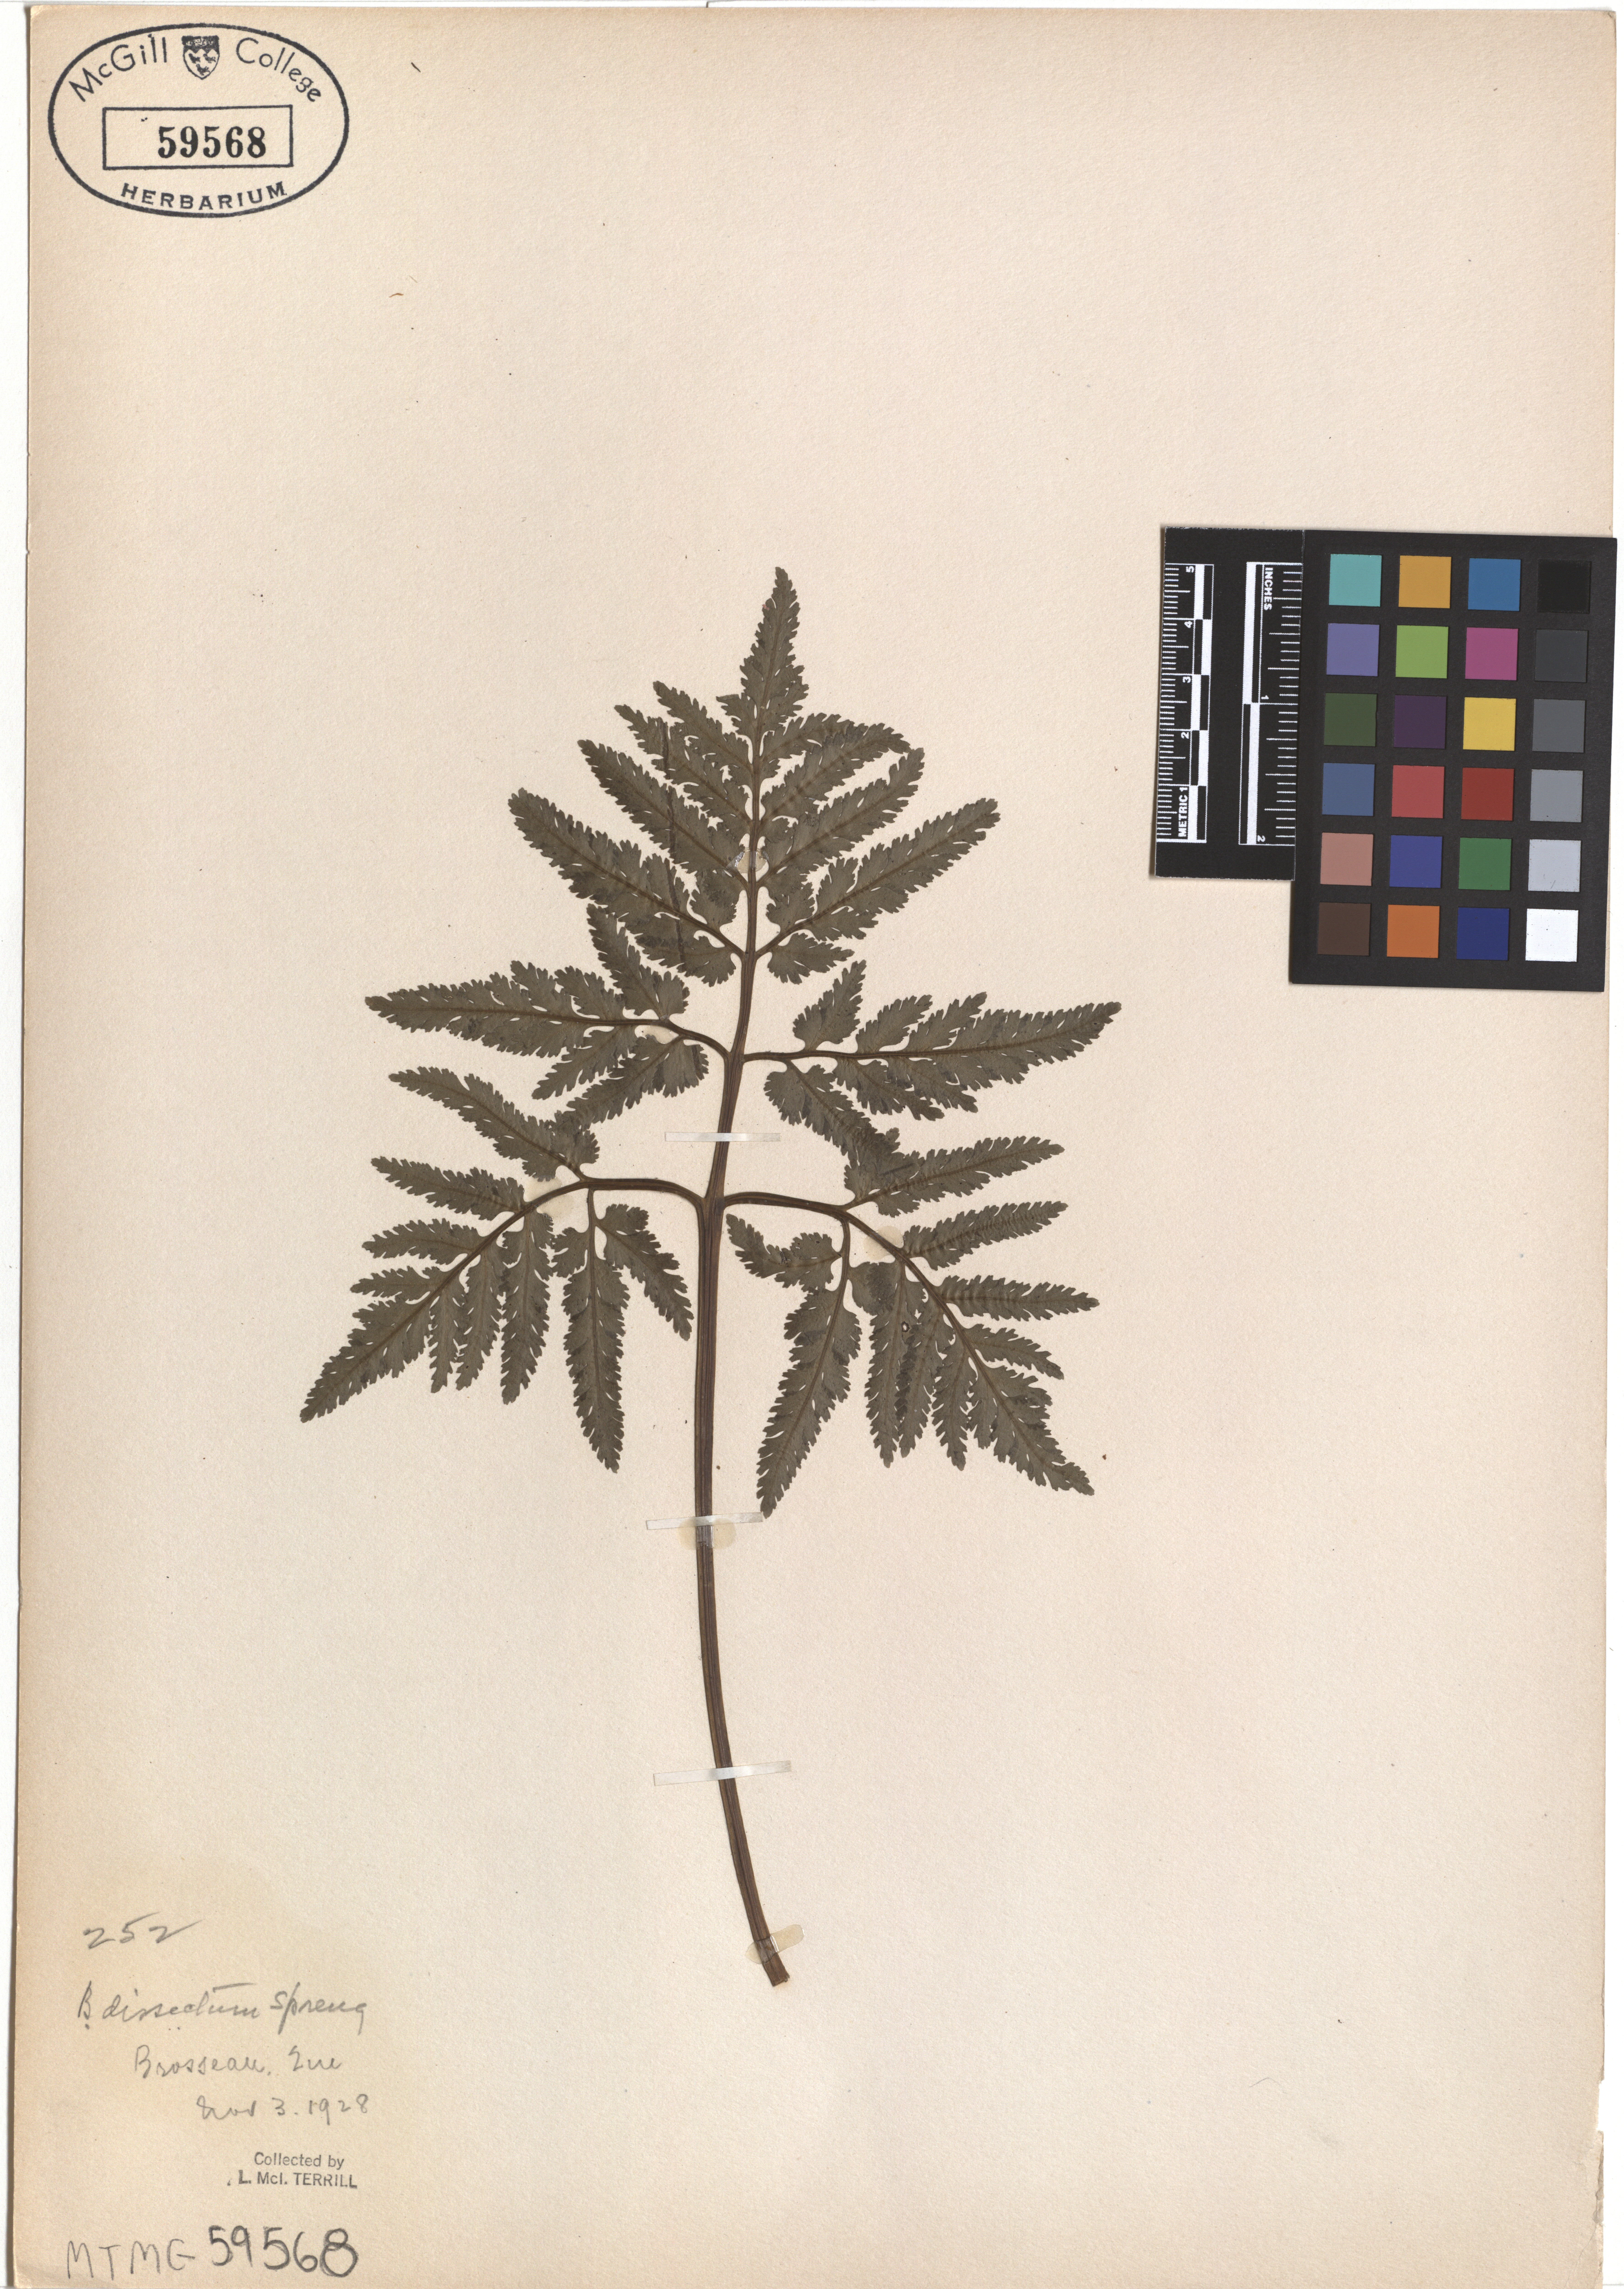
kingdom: Plantae
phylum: Tracheophyta
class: Polypodiopsida
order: Ophioglossales
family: Ophioglossaceae
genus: Sceptridium
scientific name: Sceptridium dissectum
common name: Cut-leaved grapefern
